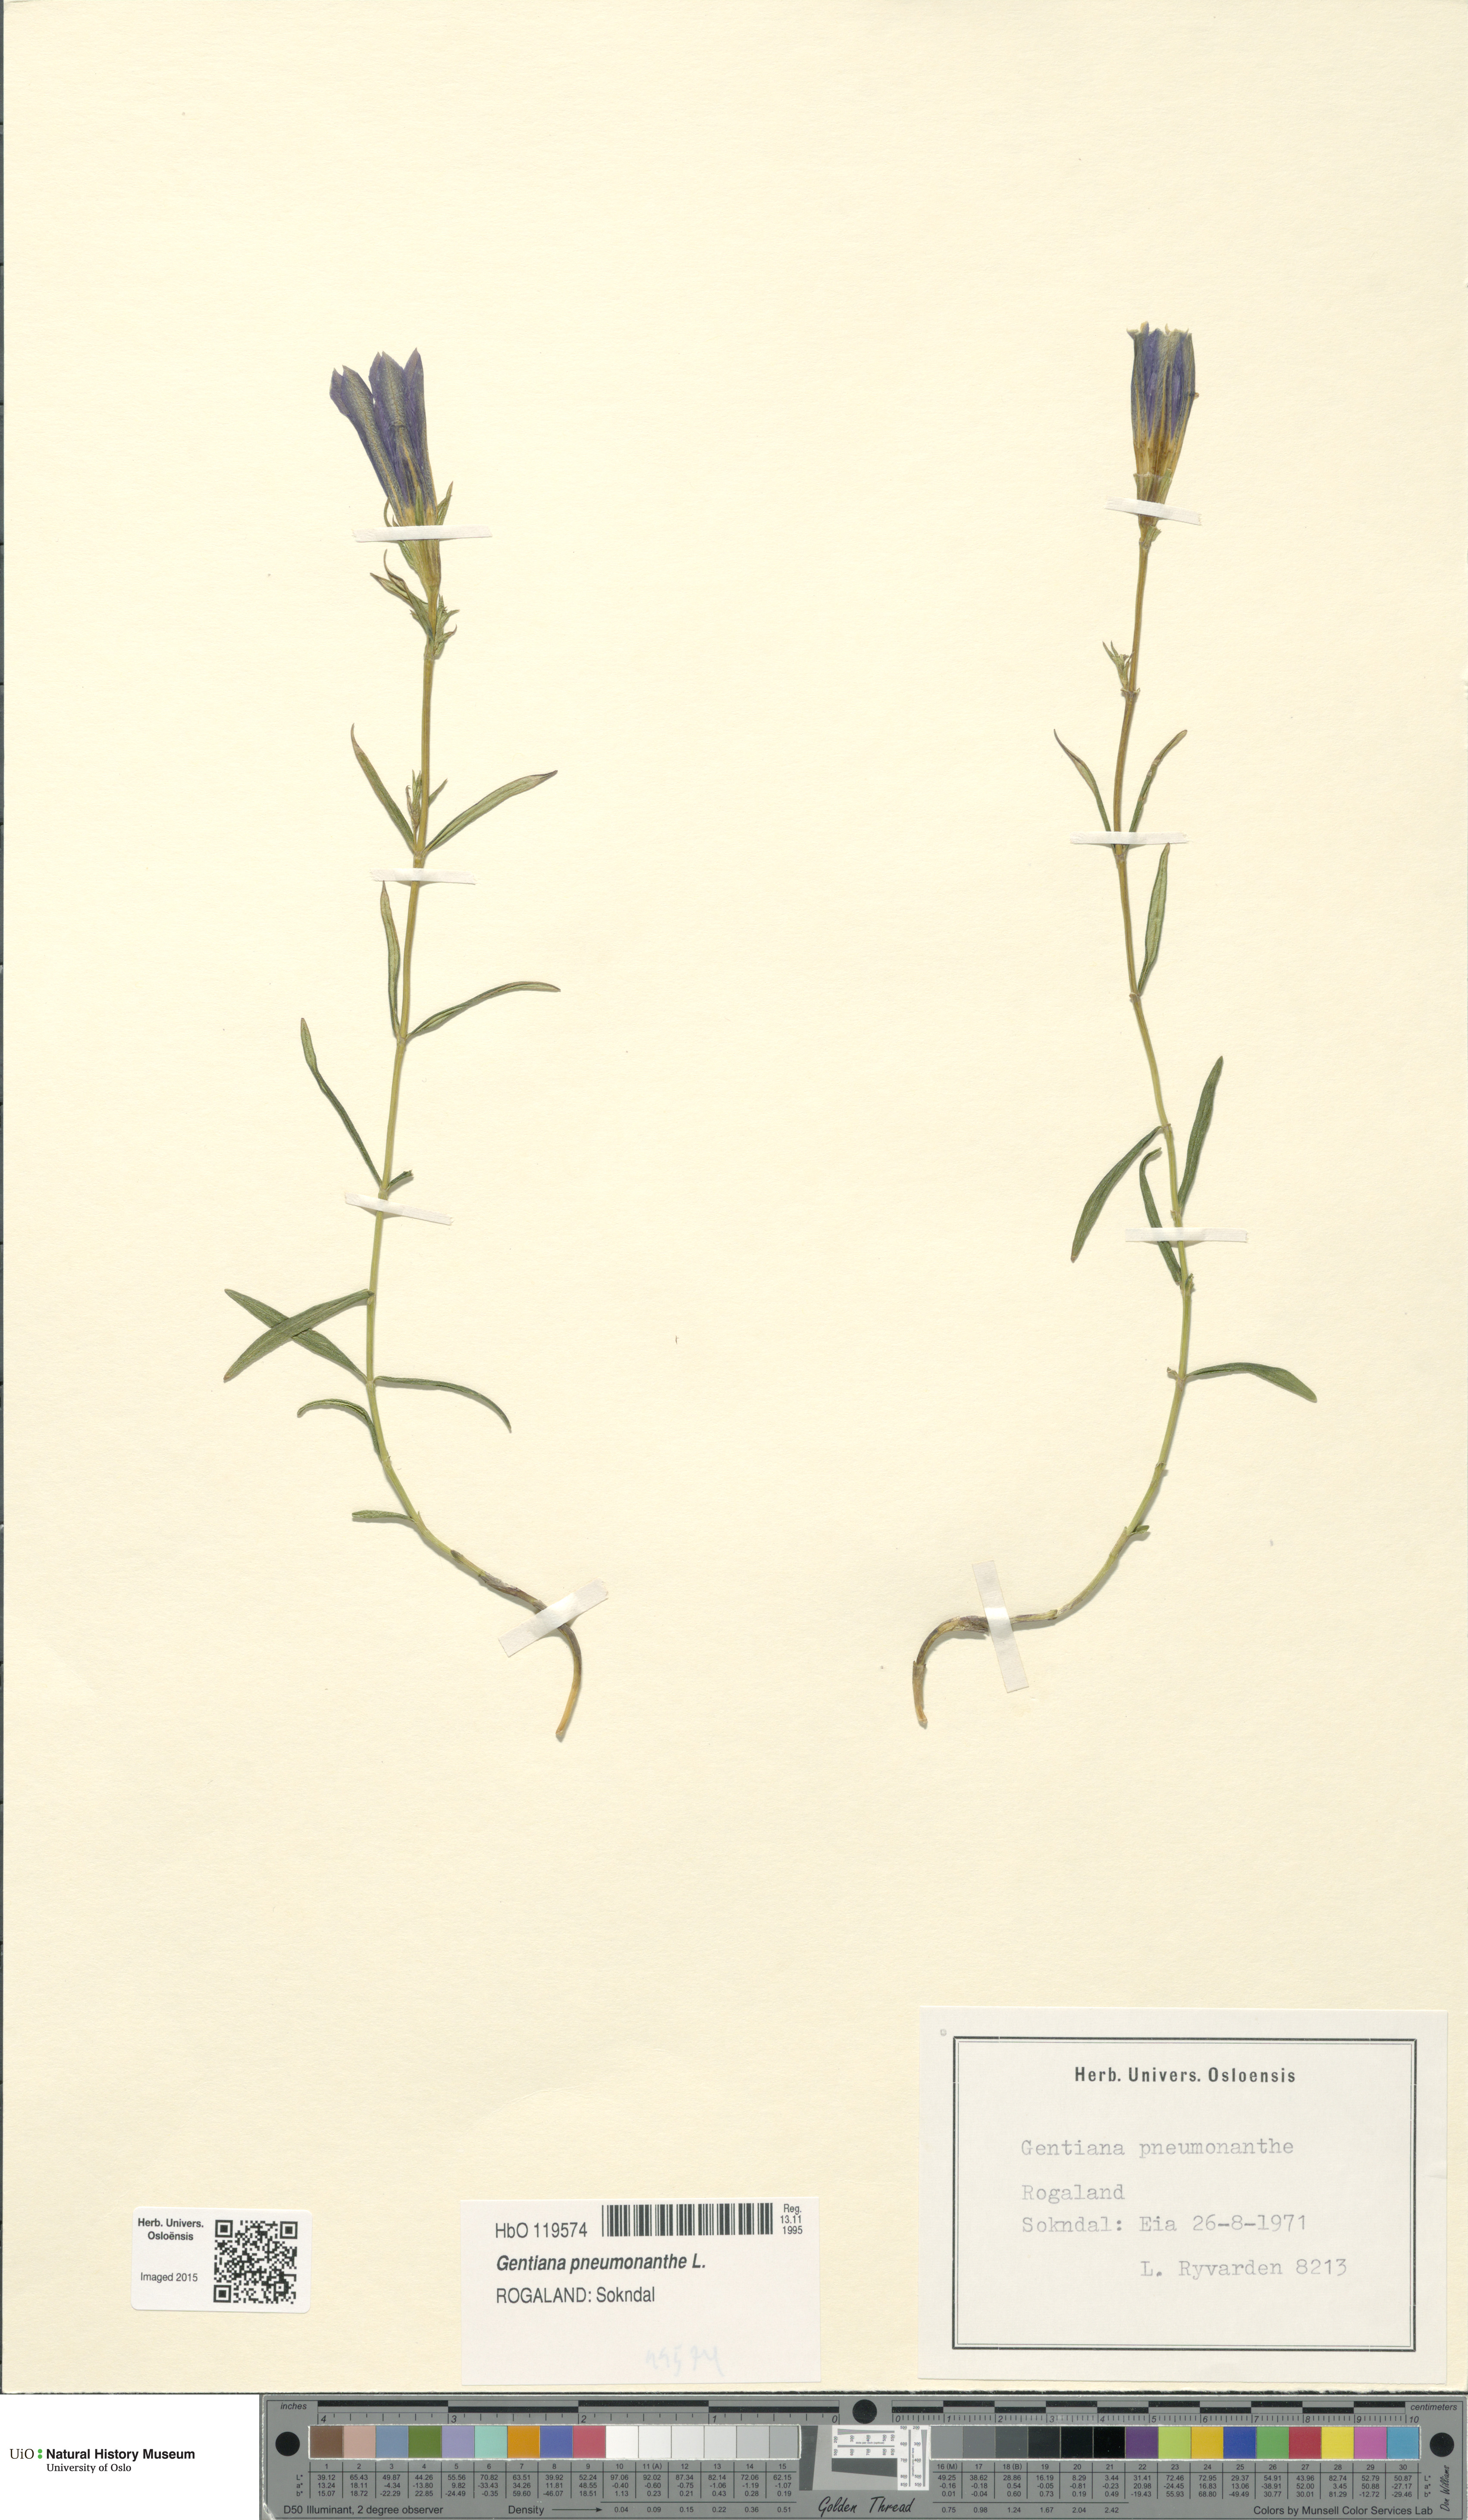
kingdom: Plantae
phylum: Tracheophyta
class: Magnoliopsida
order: Gentianales
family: Gentianaceae
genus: Gentiana
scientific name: Gentiana pneumonanthe
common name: Marsh gentian
